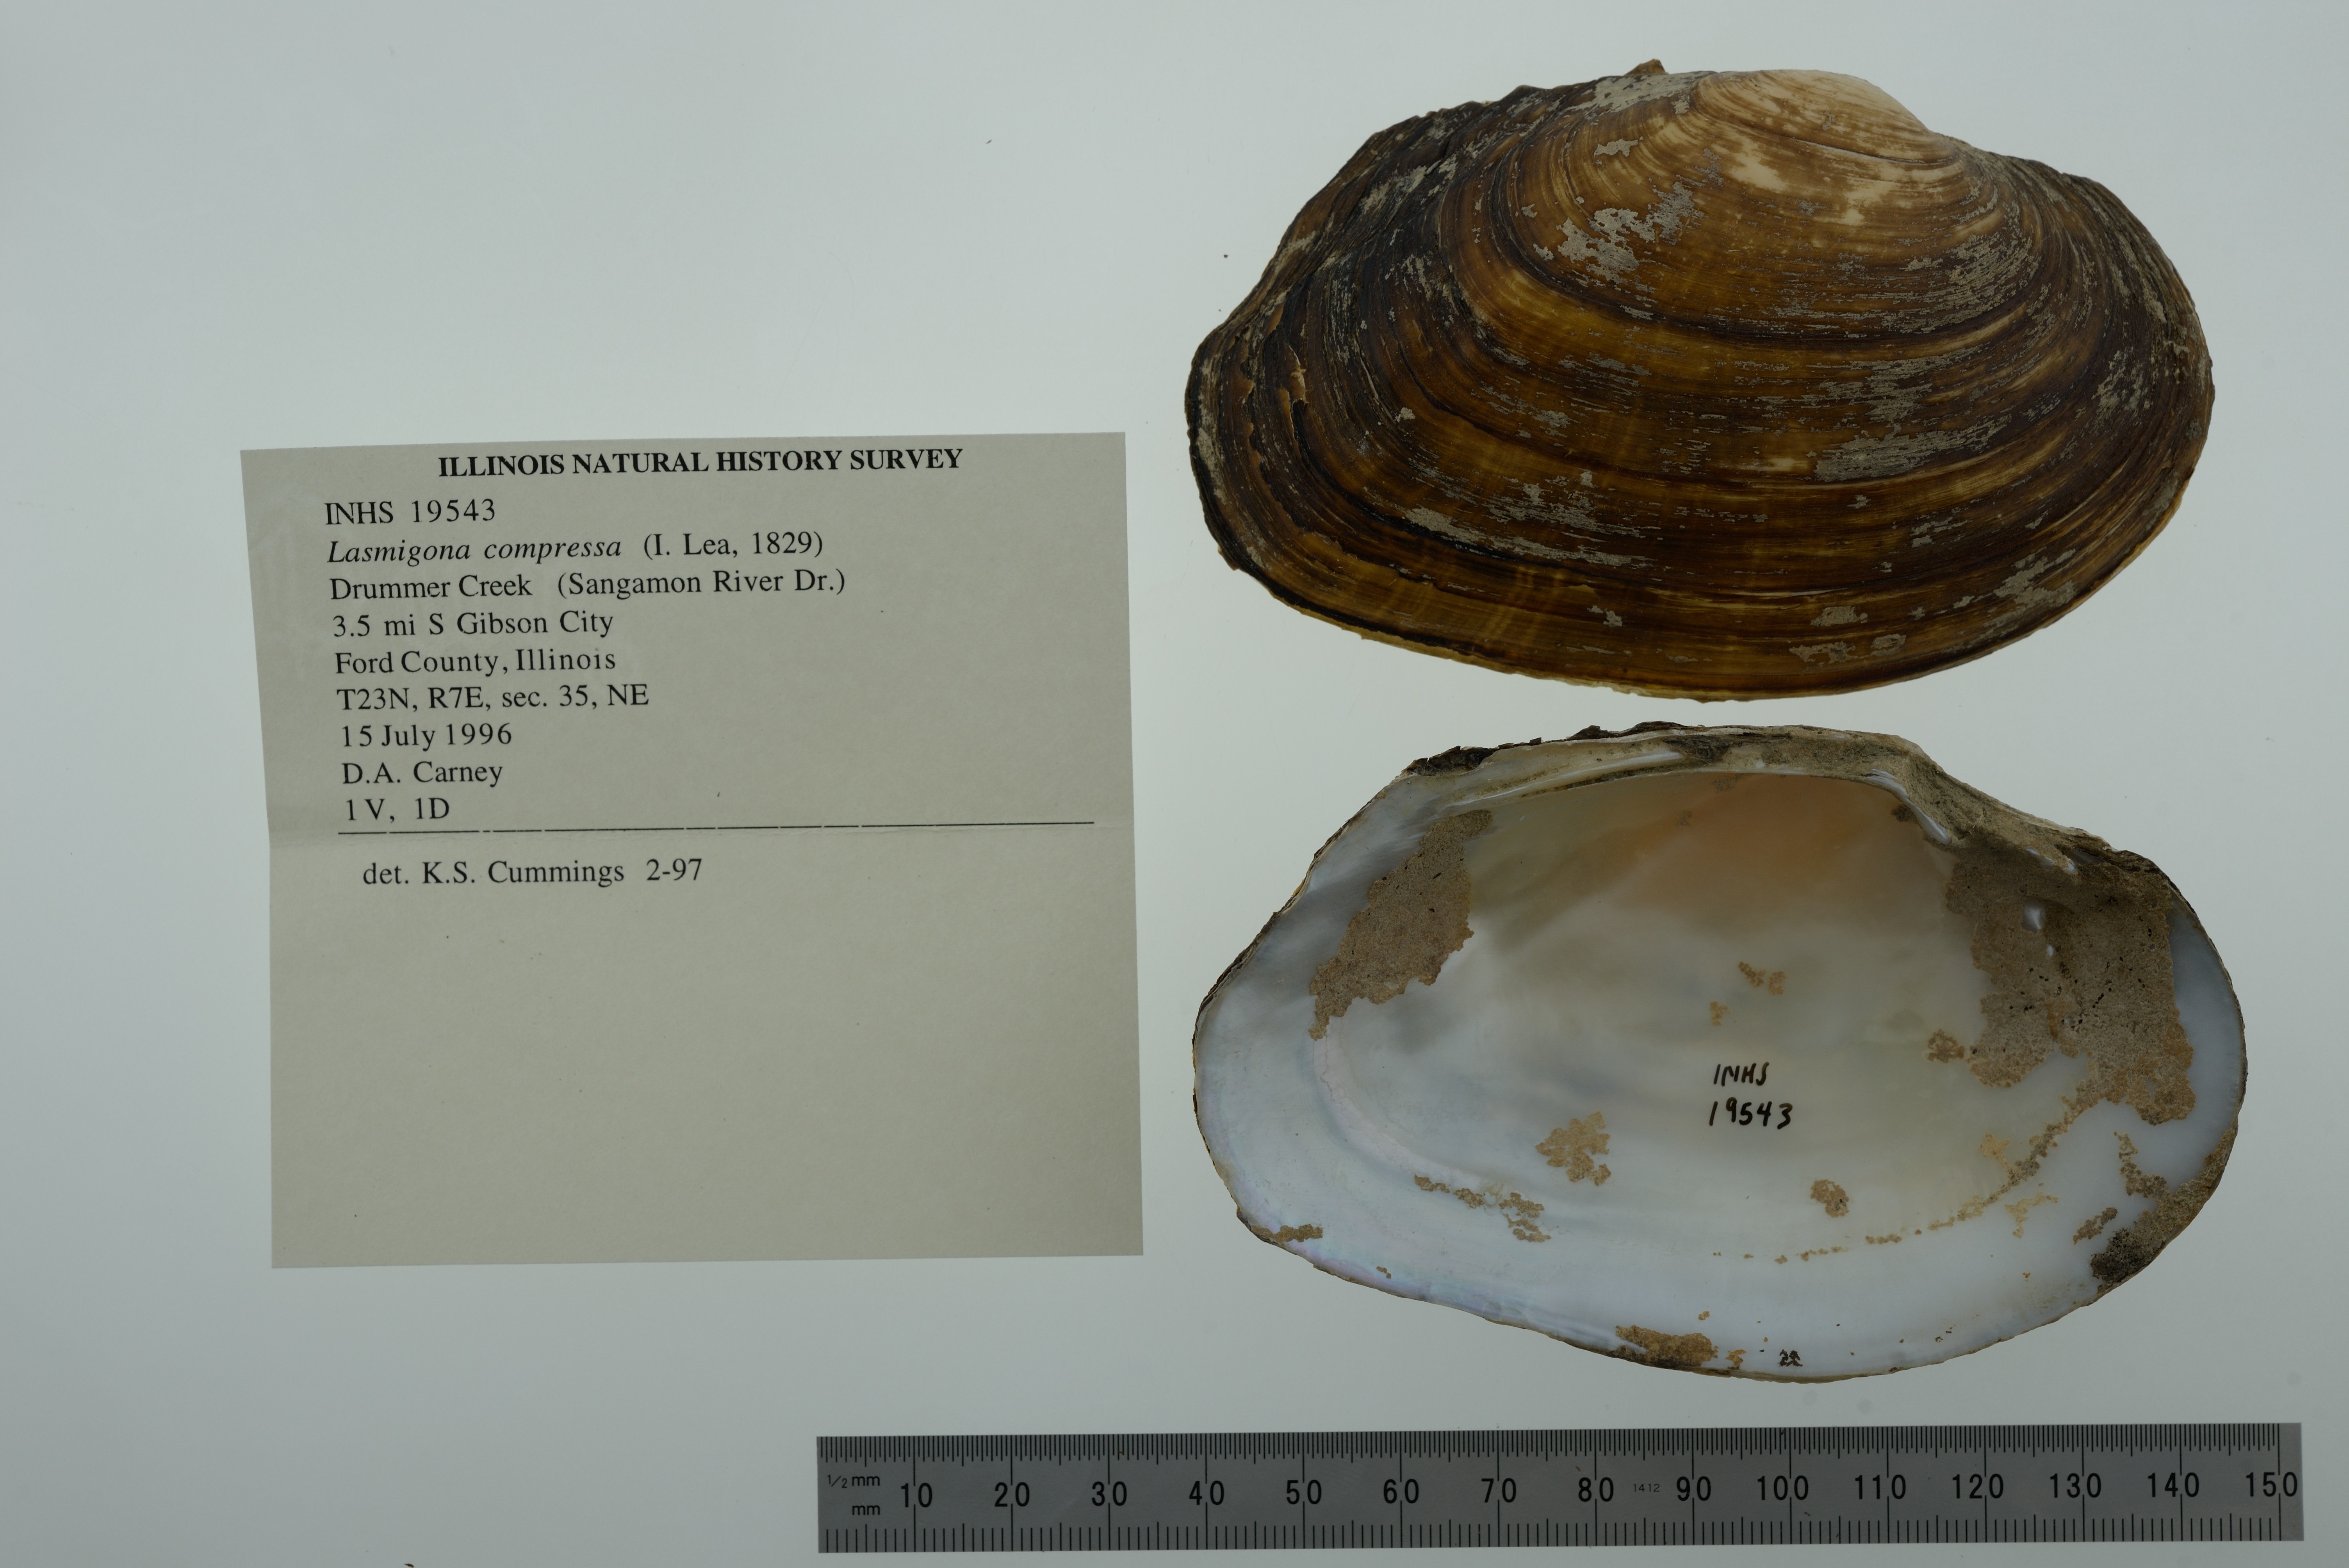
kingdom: Animalia
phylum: Mollusca
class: Bivalvia
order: Unionida
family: Unionidae
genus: Lasmigona
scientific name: Lasmigona compressa
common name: Creek heelsplitter
